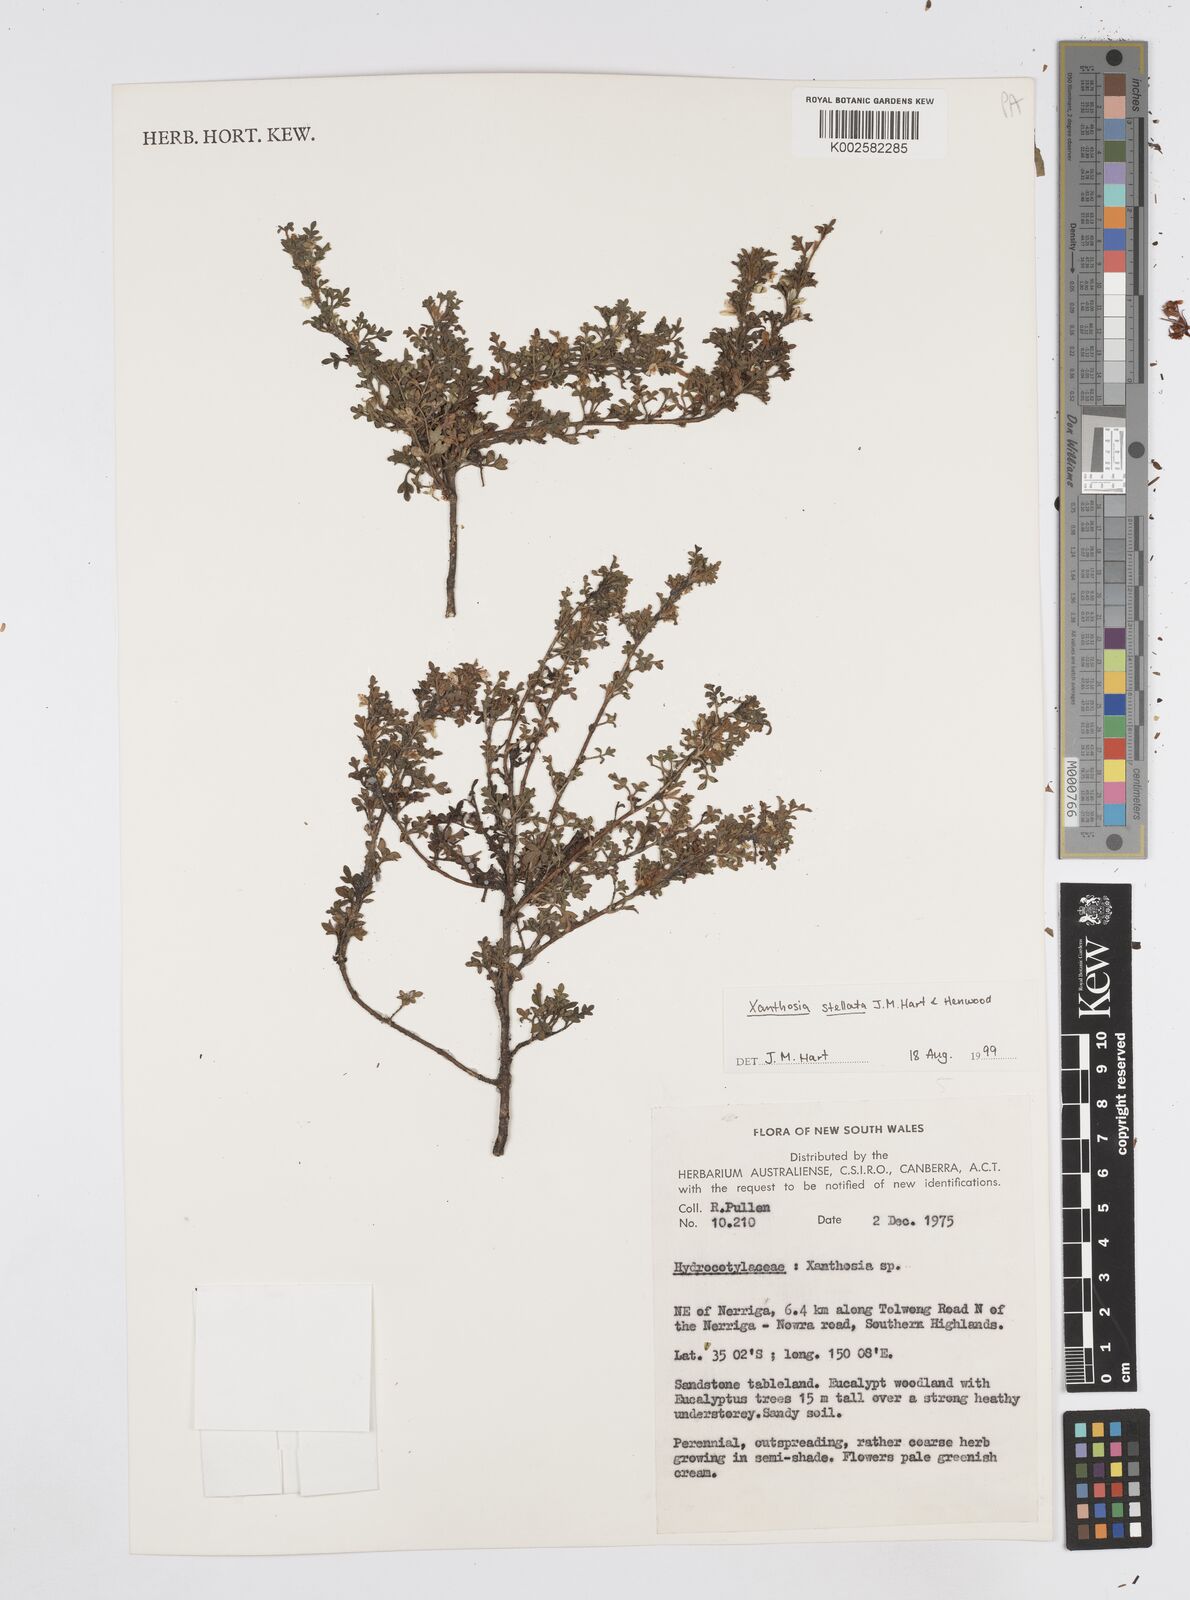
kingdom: Plantae
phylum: Tracheophyta
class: Magnoliopsida
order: Apiales
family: Apiaceae
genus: Xanthosia
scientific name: Xanthosia stellata
